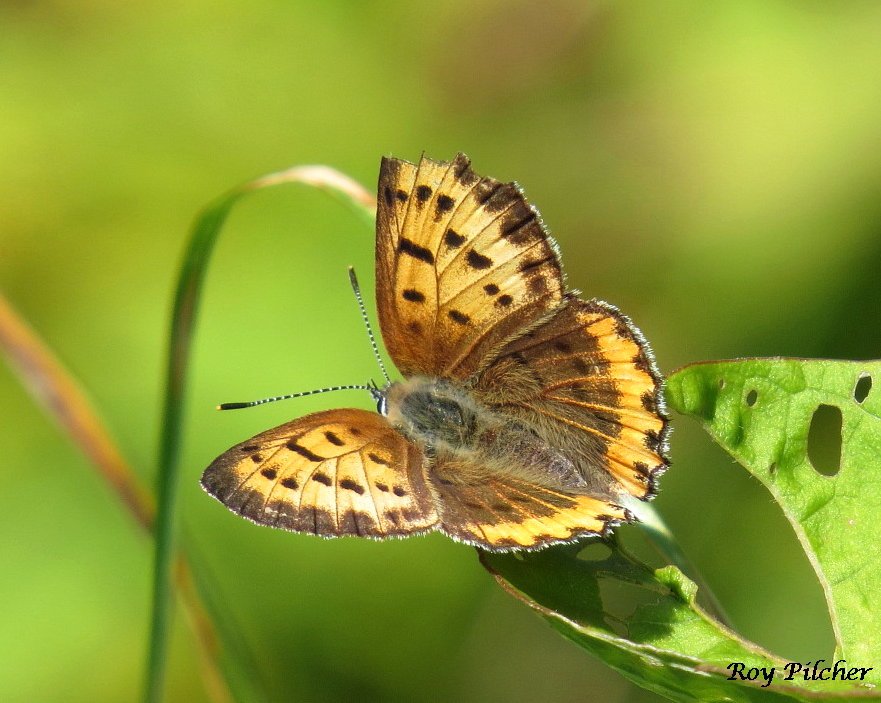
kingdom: Animalia
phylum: Arthropoda
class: Insecta
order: Lepidoptera
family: Sesiidae
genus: Sesia
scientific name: Sesia Lycaena hyllus
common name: Bronze Copper
